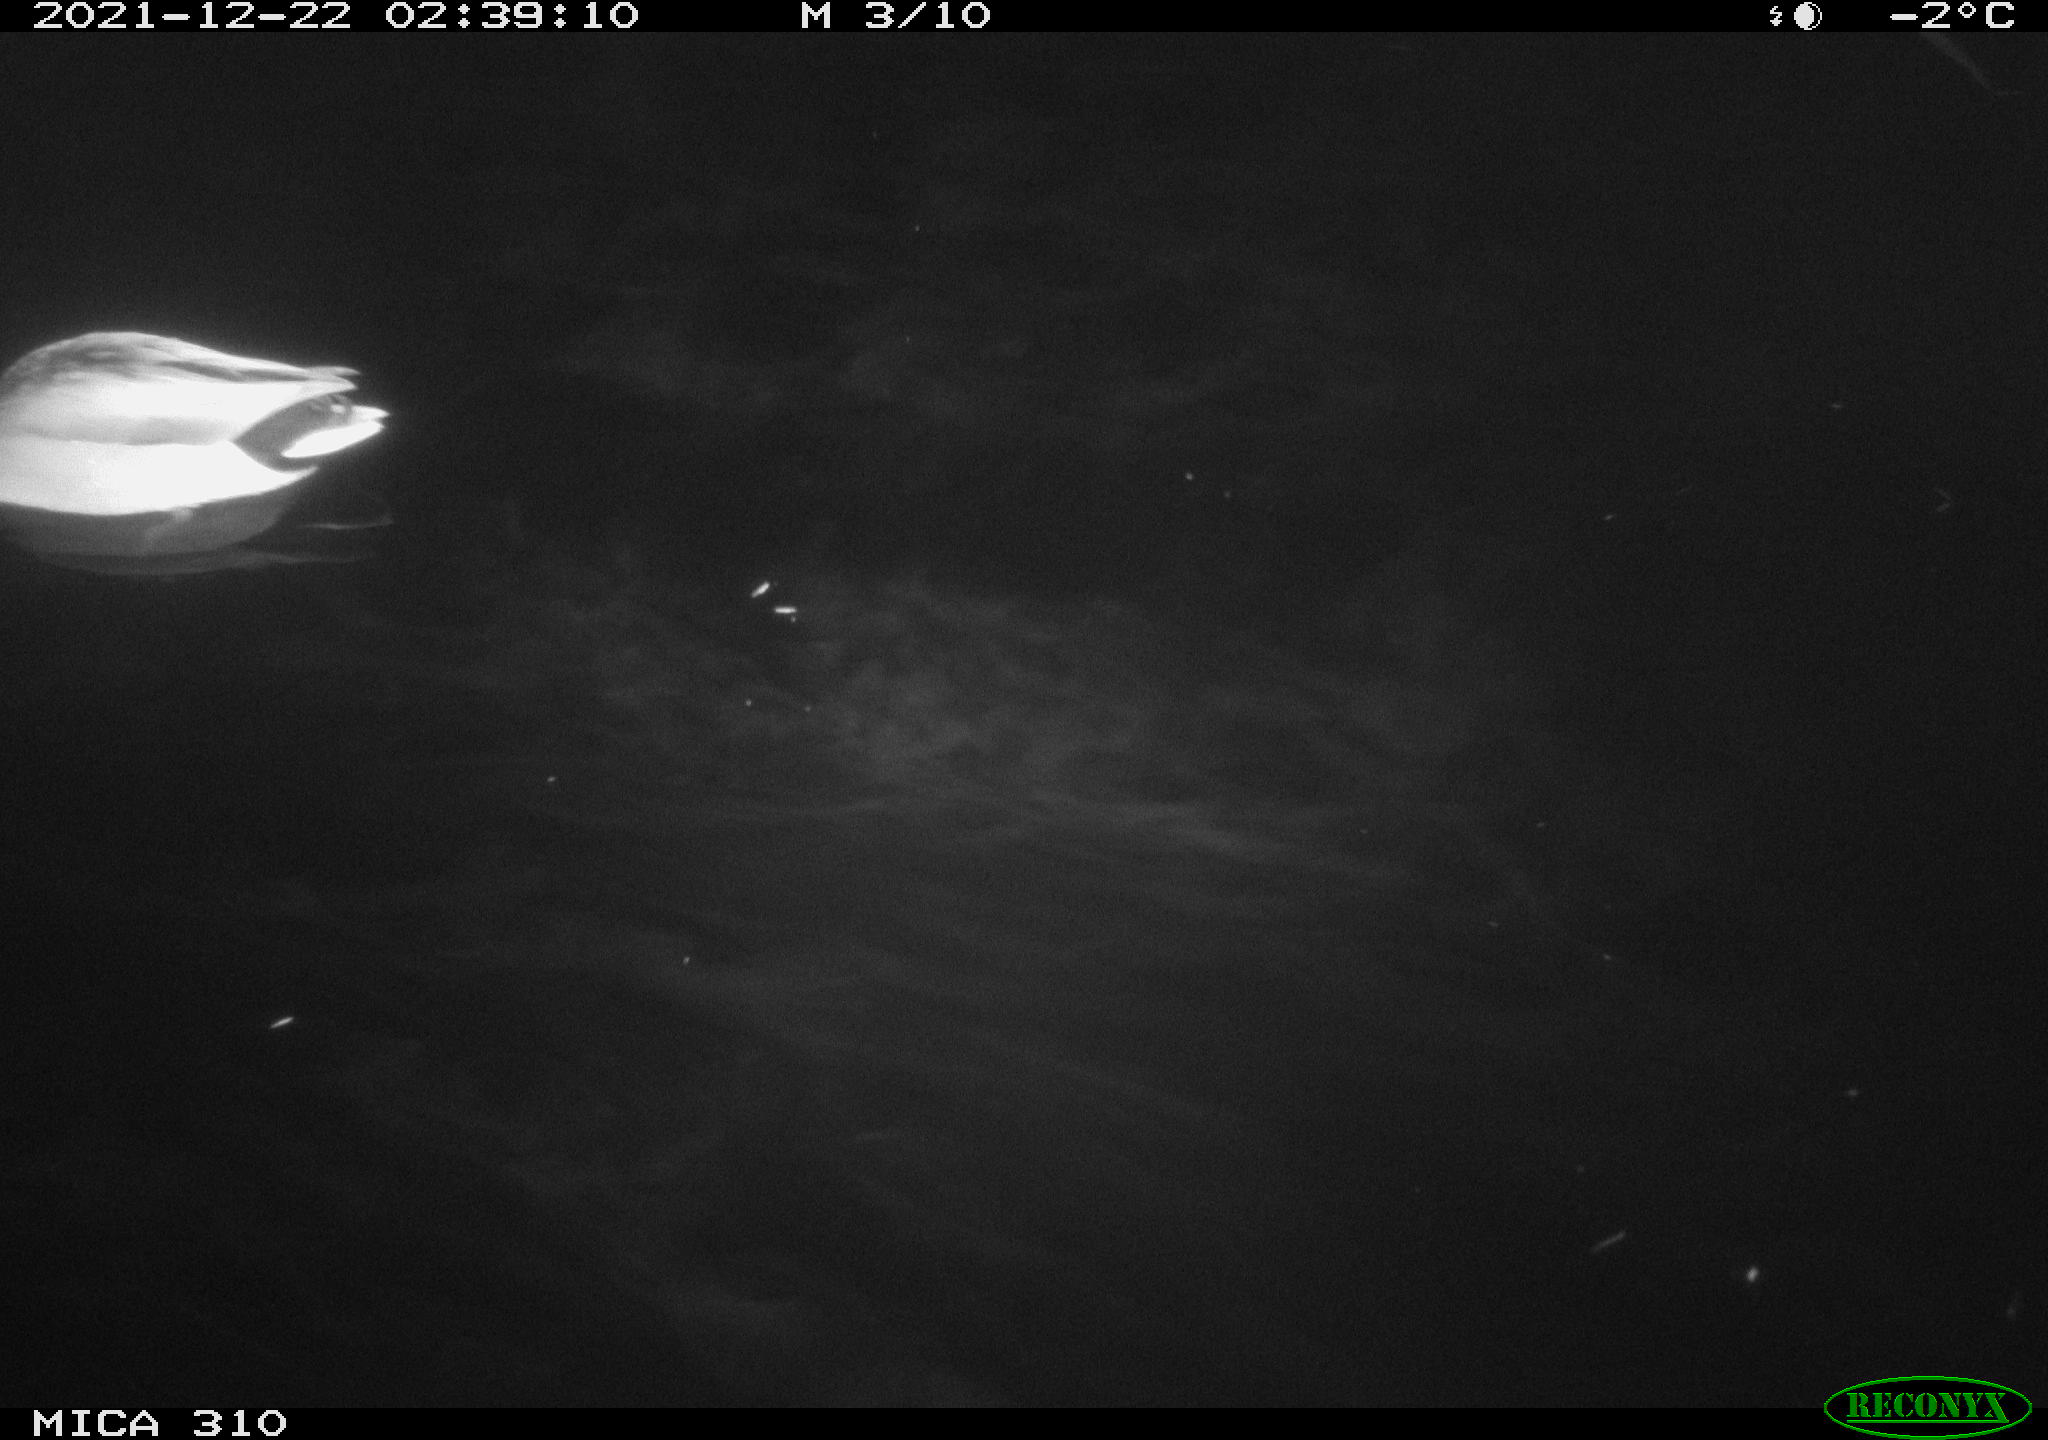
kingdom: Animalia
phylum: Chordata
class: Aves
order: Anseriformes
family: Anatidae
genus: Anas
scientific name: Anas platyrhynchos
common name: Mallard
